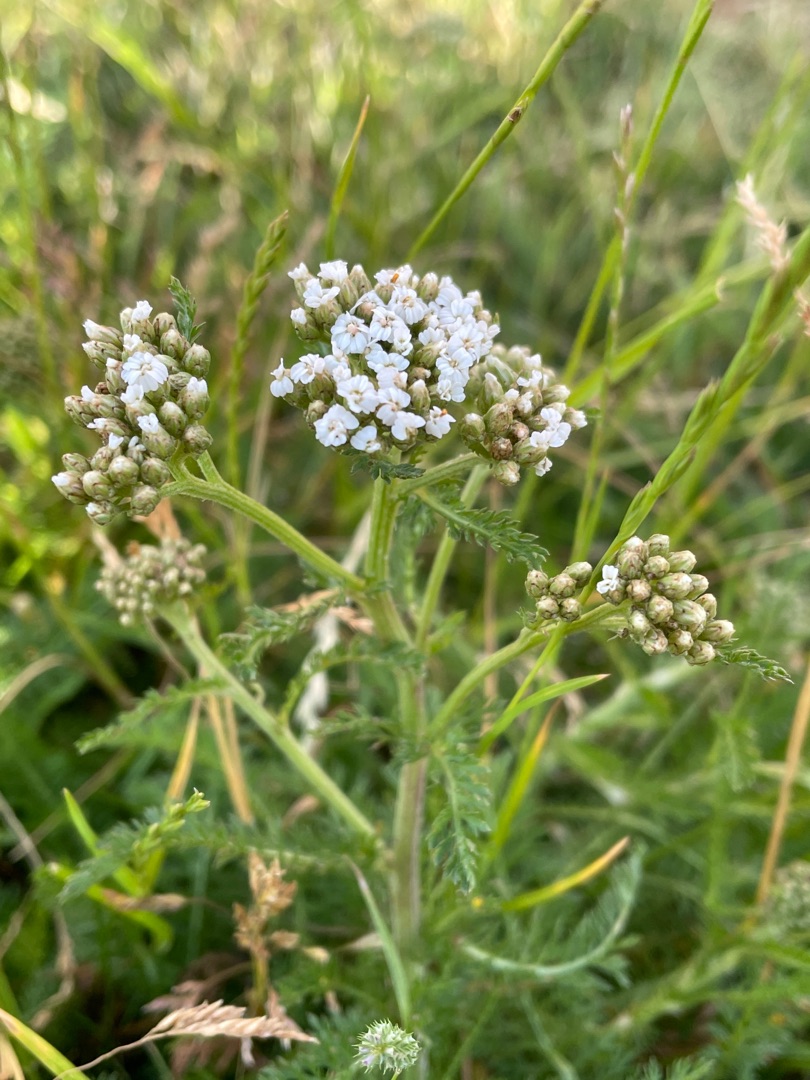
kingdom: Plantae
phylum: Tracheophyta
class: Magnoliopsida
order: Asterales
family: Asteraceae
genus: Achillea
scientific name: Achillea millefolium
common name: Almindelig røllike
